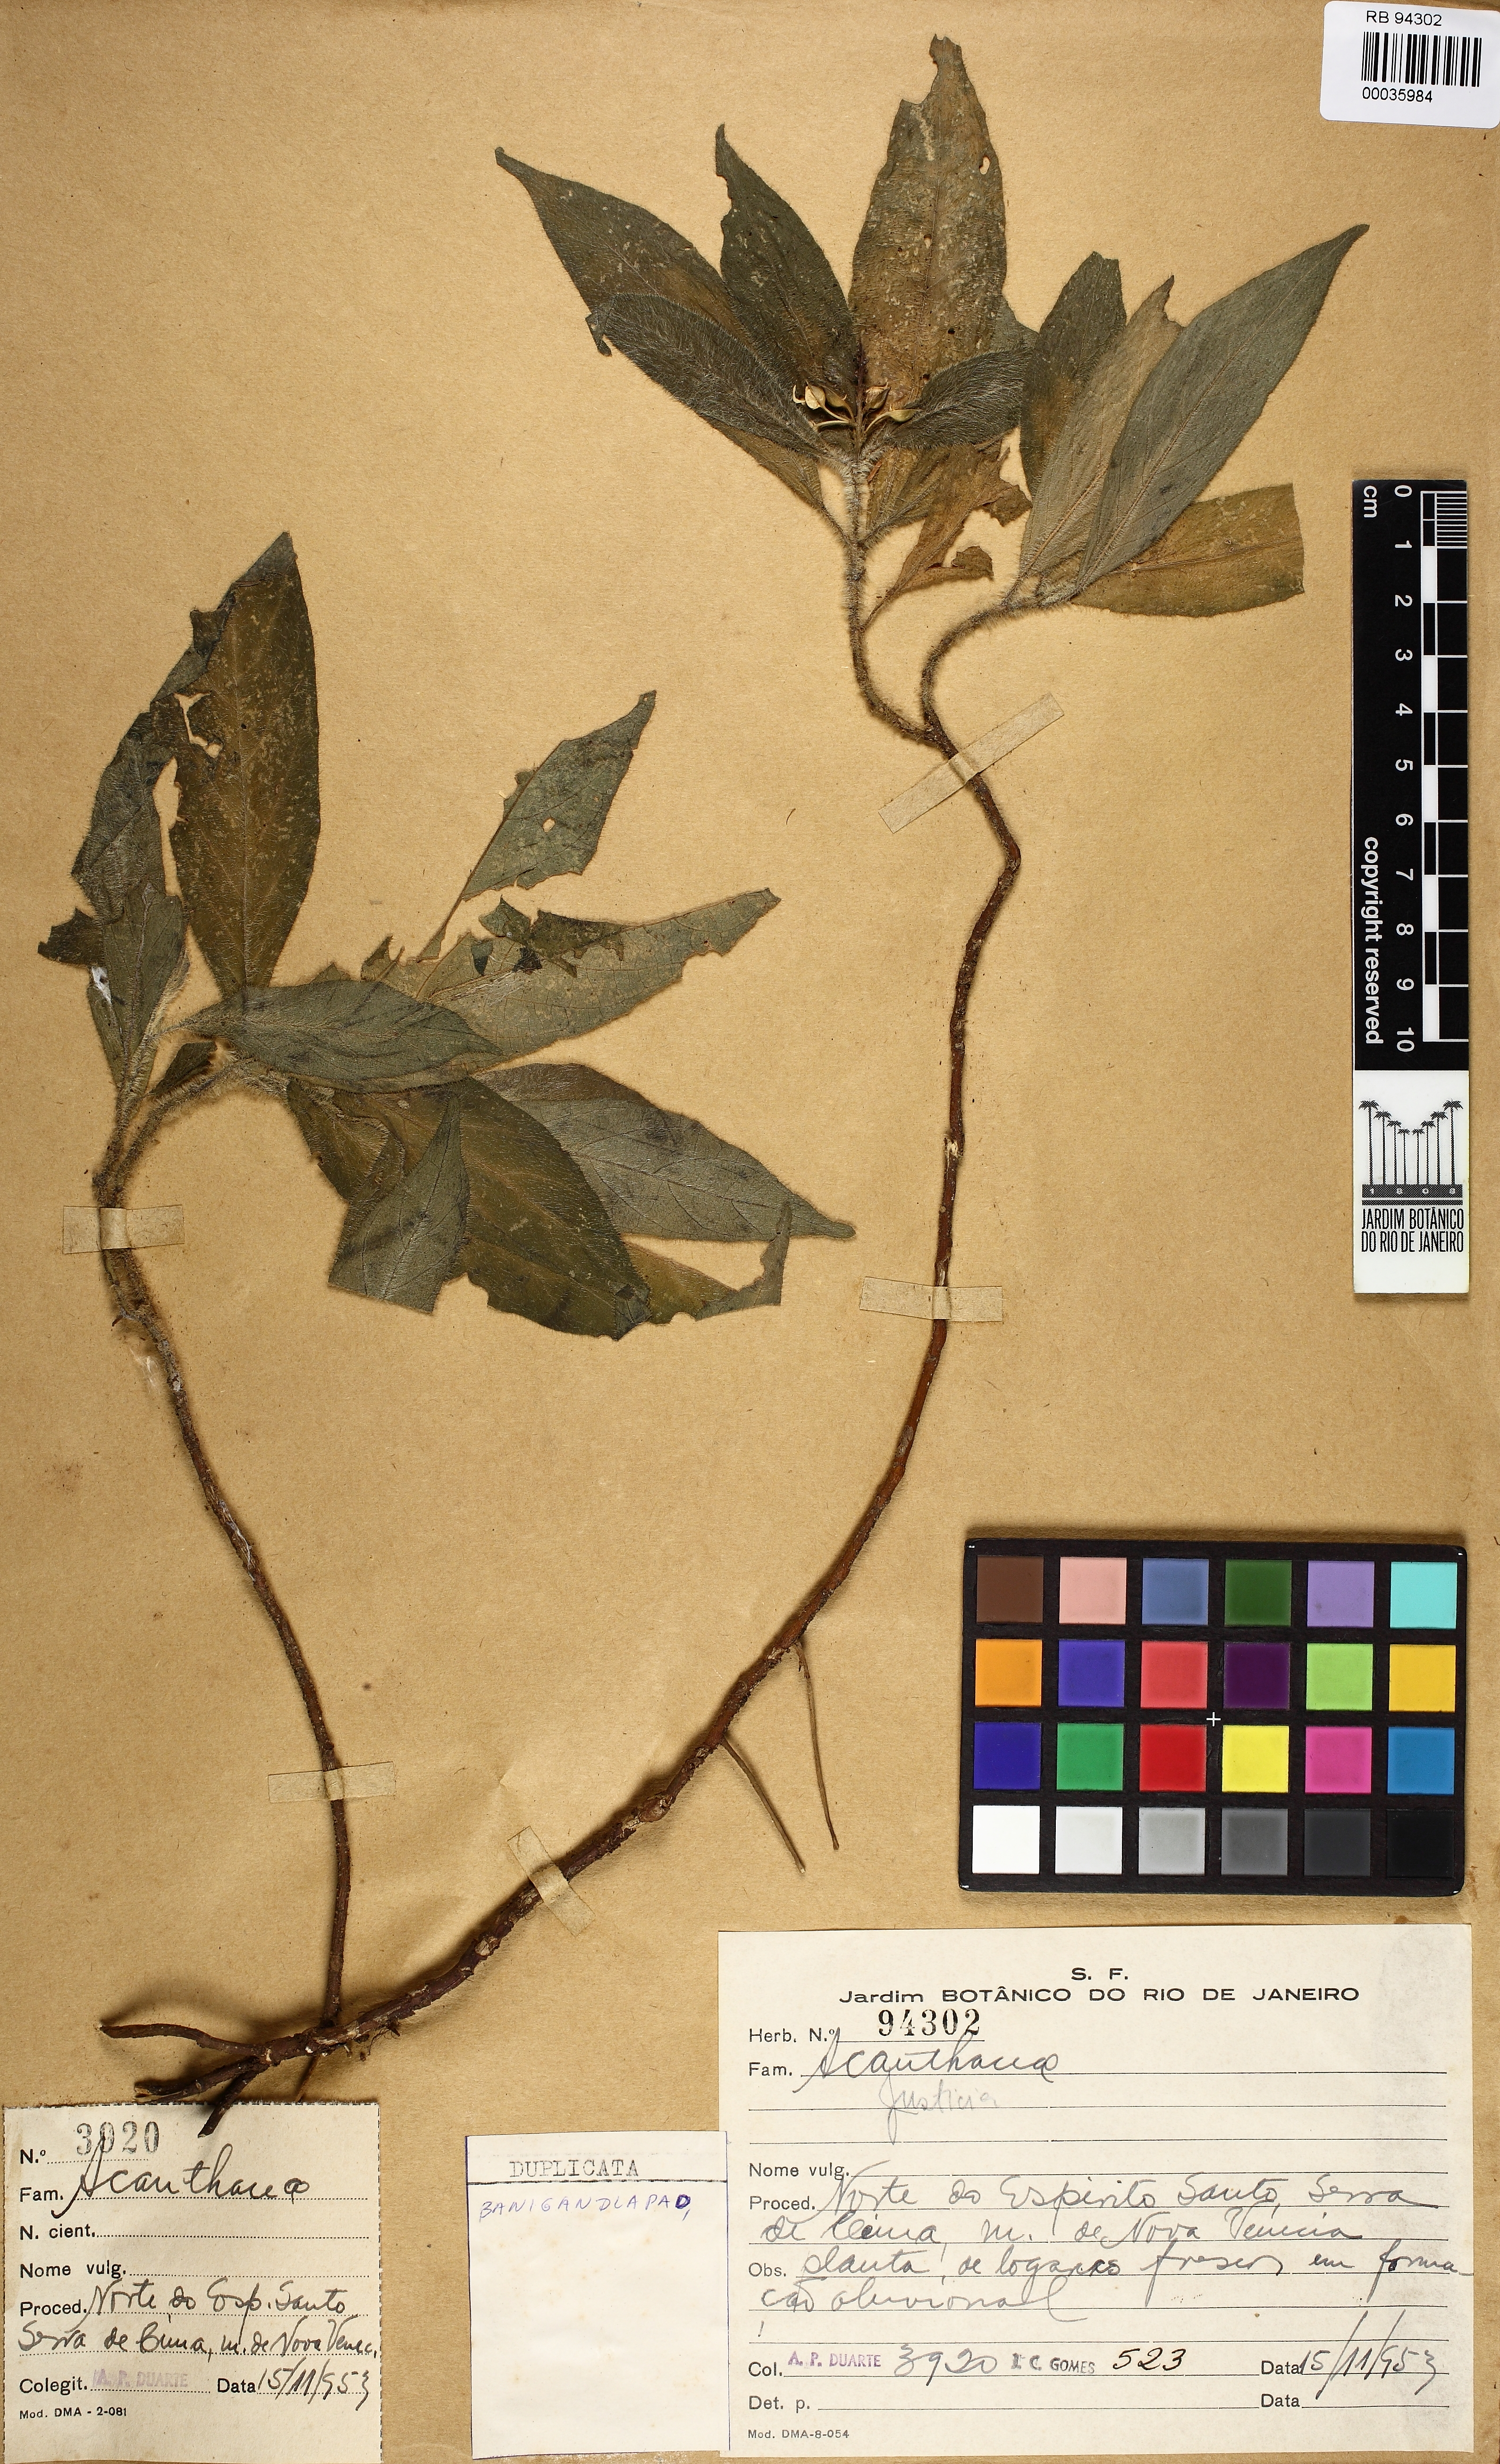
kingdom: Plantae
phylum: Tracheophyta
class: Magnoliopsida
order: Lamiales
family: Acanthaceae
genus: Justicia
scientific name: Justicia
